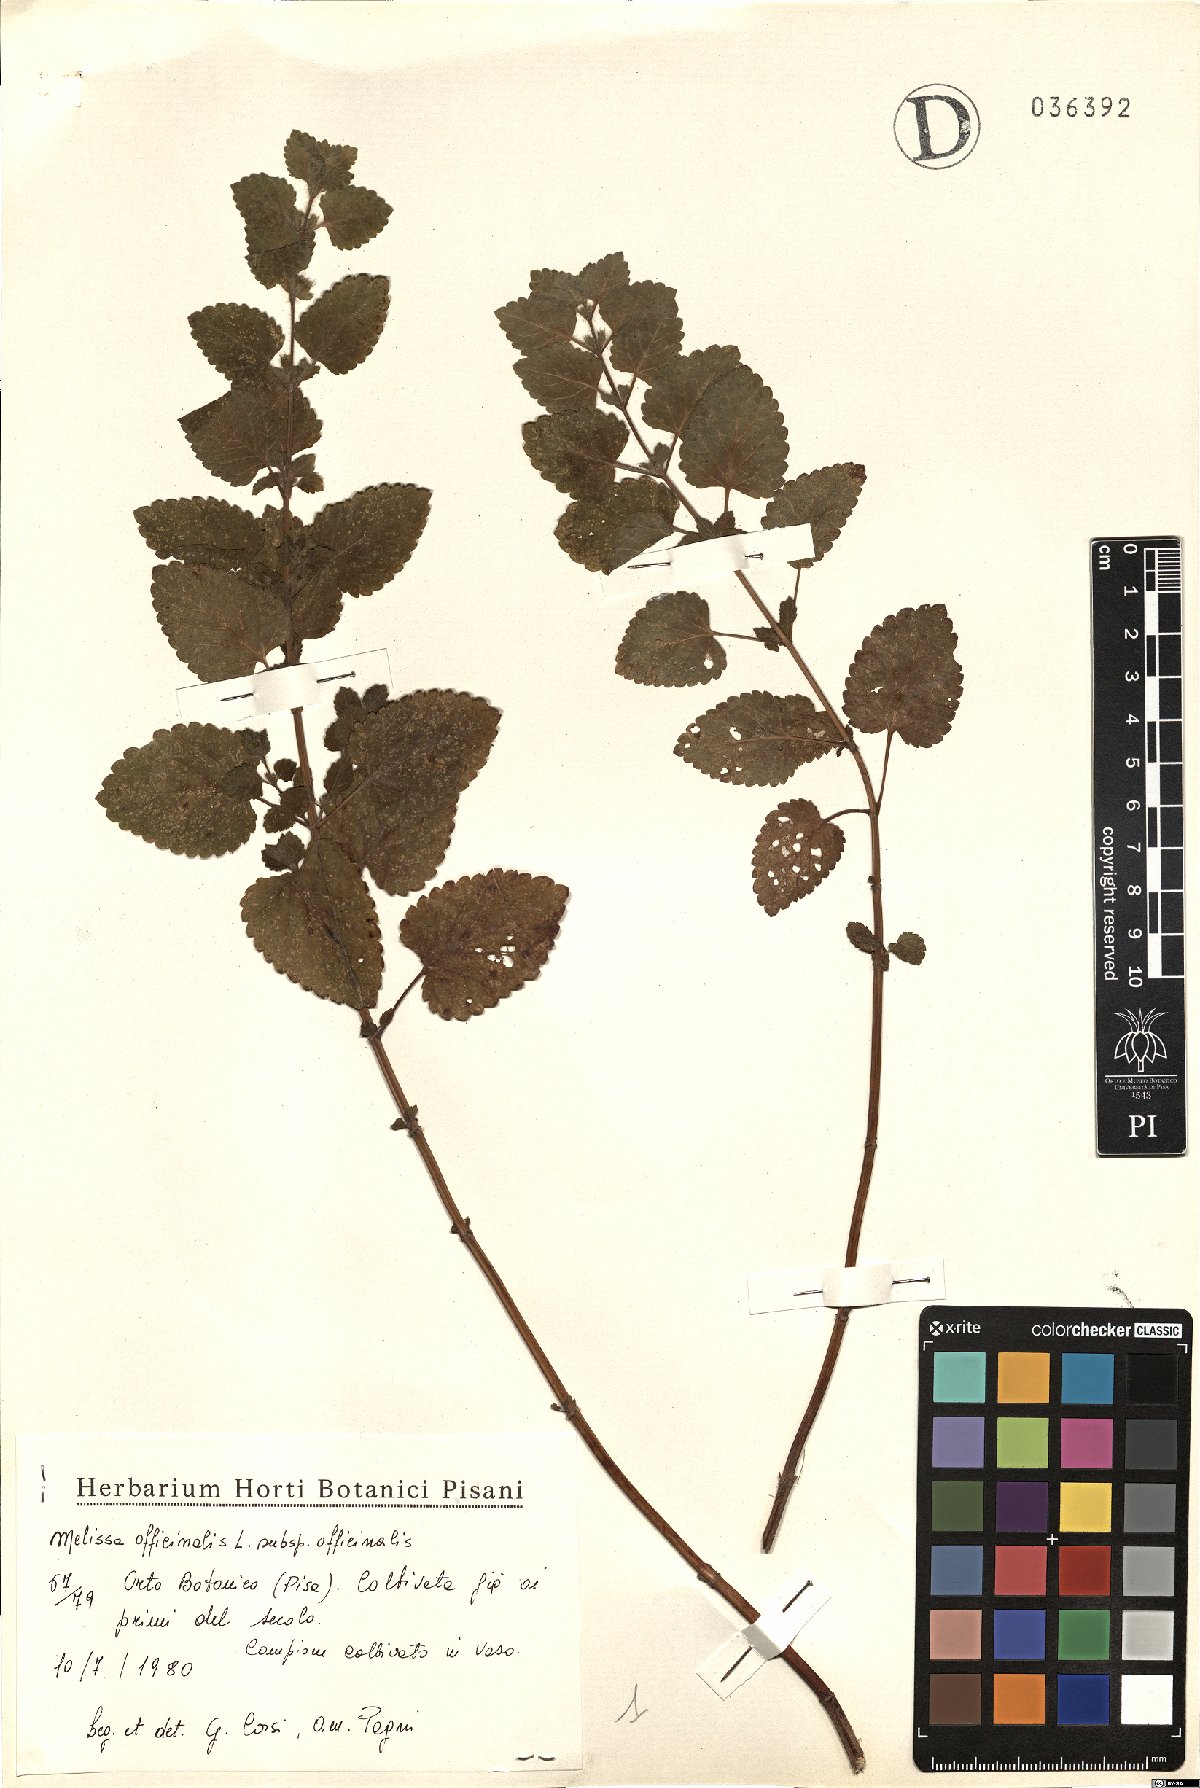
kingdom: Plantae
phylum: Tracheophyta
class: Magnoliopsida
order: Lamiales
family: Lamiaceae
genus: Melissa
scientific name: Melissa officinalis
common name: Balm
